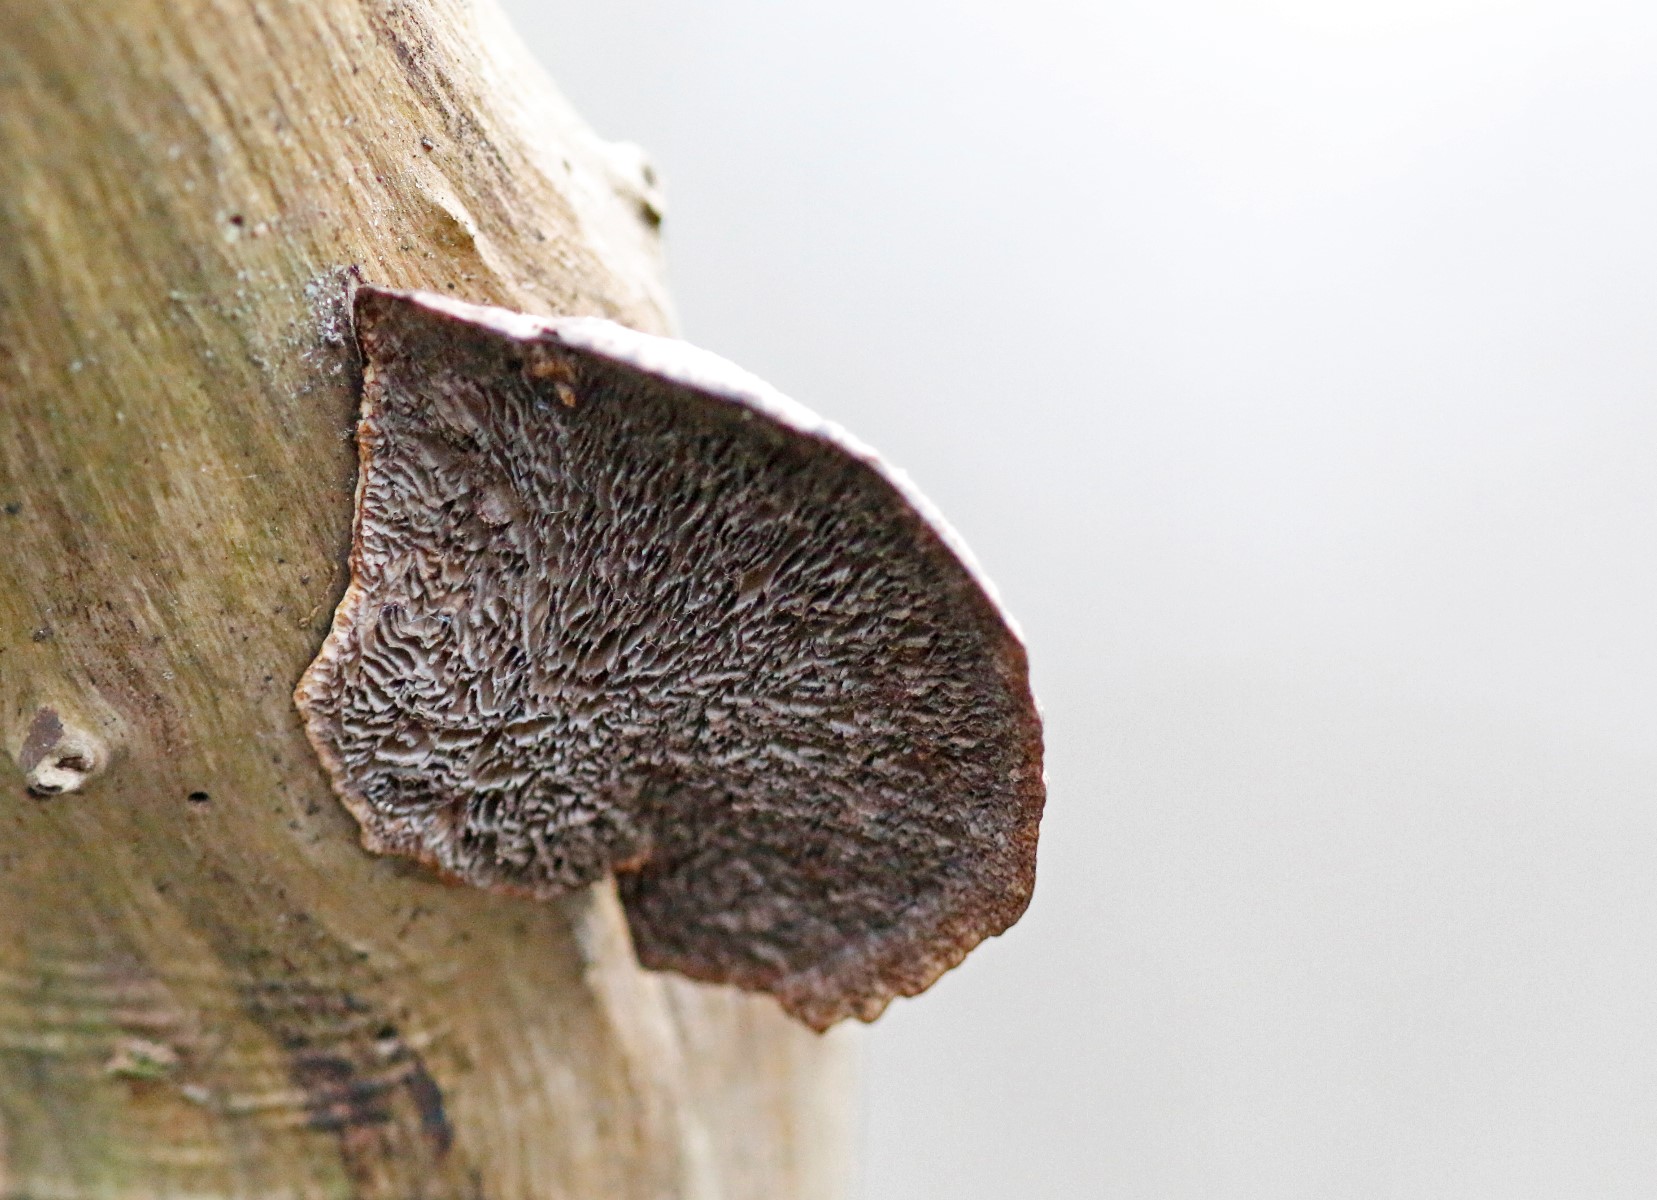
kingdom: Fungi
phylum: Basidiomycota
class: Agaricomycetes
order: Polyporales
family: Polyporaceae
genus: Daedaleopsis
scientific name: Daedaleopsis confragosa
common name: rødmende læderporesvamp
